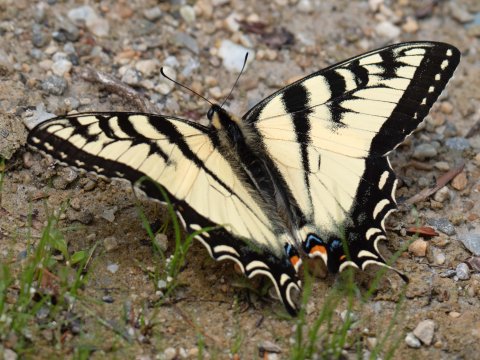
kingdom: Animalia
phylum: Arthropoda
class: Insecta
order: Lepidoptera
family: Papilionidae
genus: Pterourus
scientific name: Pterourus canadensis
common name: Canadian Tiger Swallowtail
